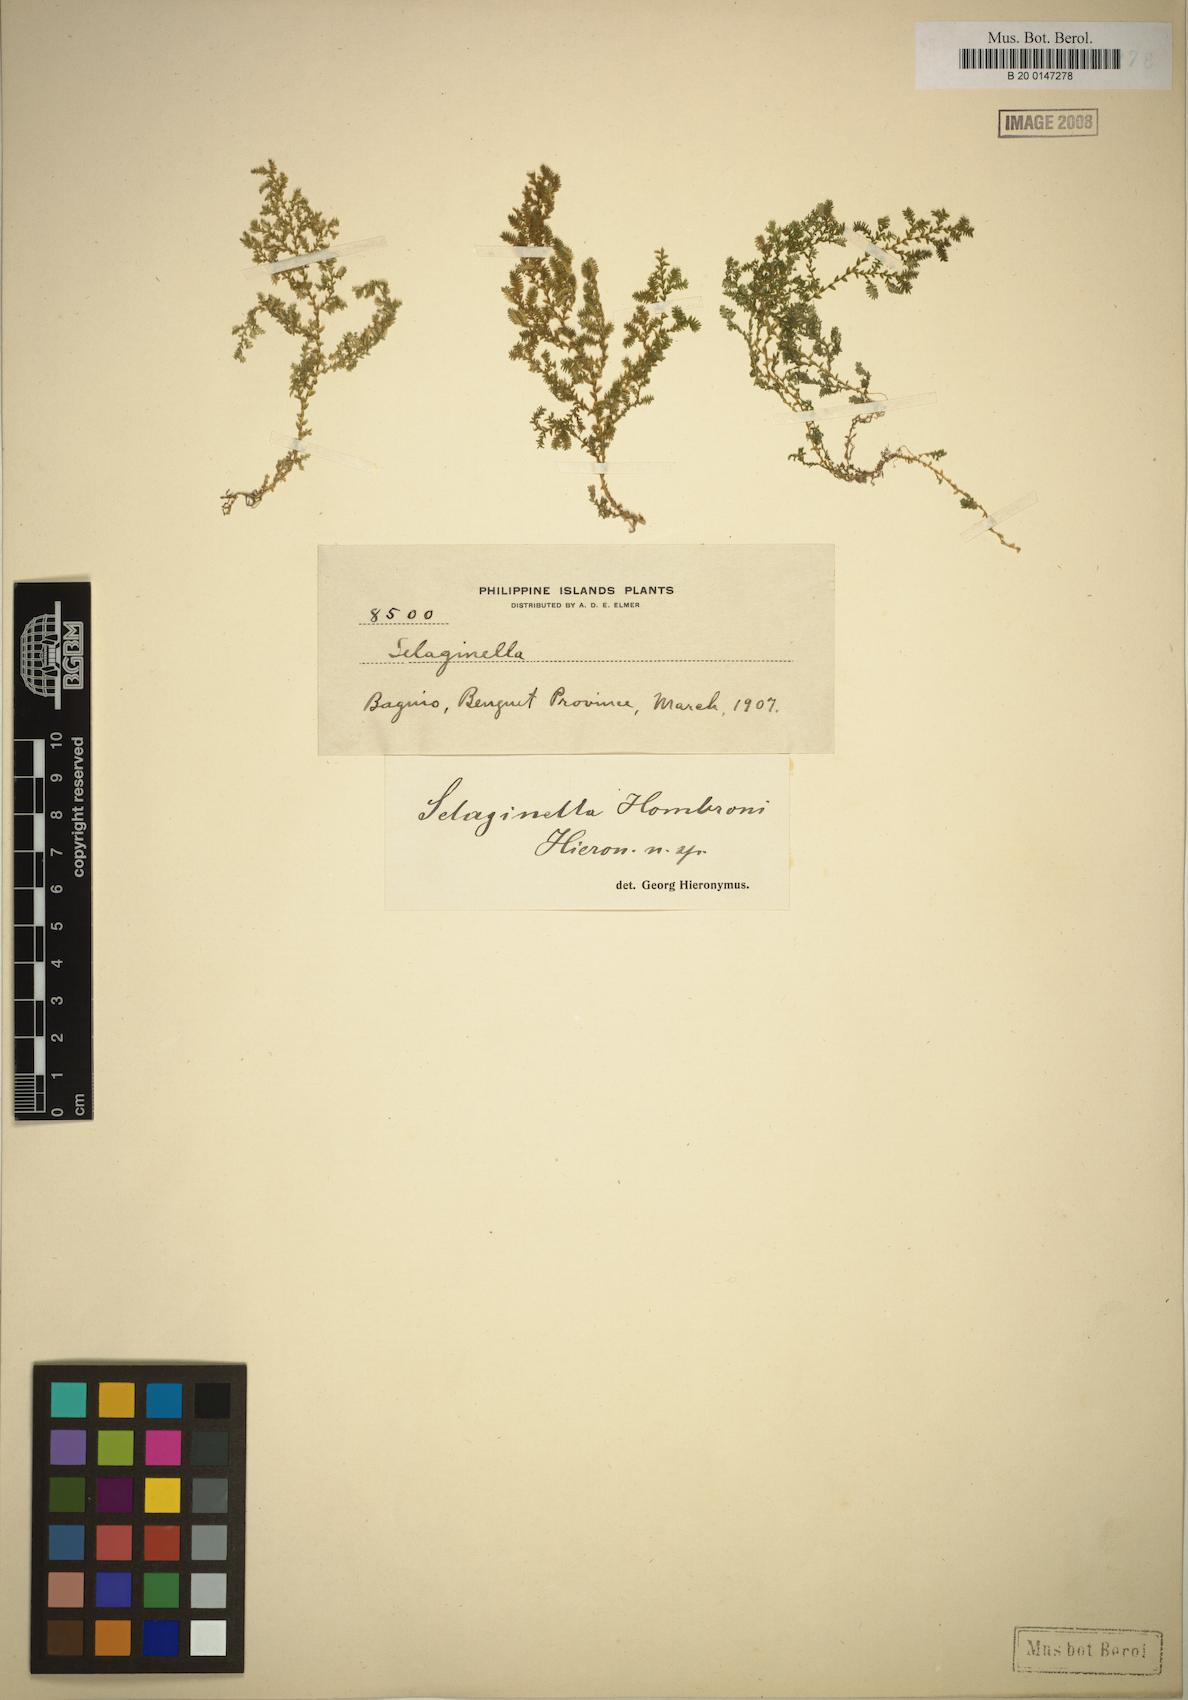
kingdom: Plantae
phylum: Tracheophyta
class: Lycopodiopsida
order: Selaginellales
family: Selaginellaceae
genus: Selaginella
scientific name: Selaginella philippsiana
